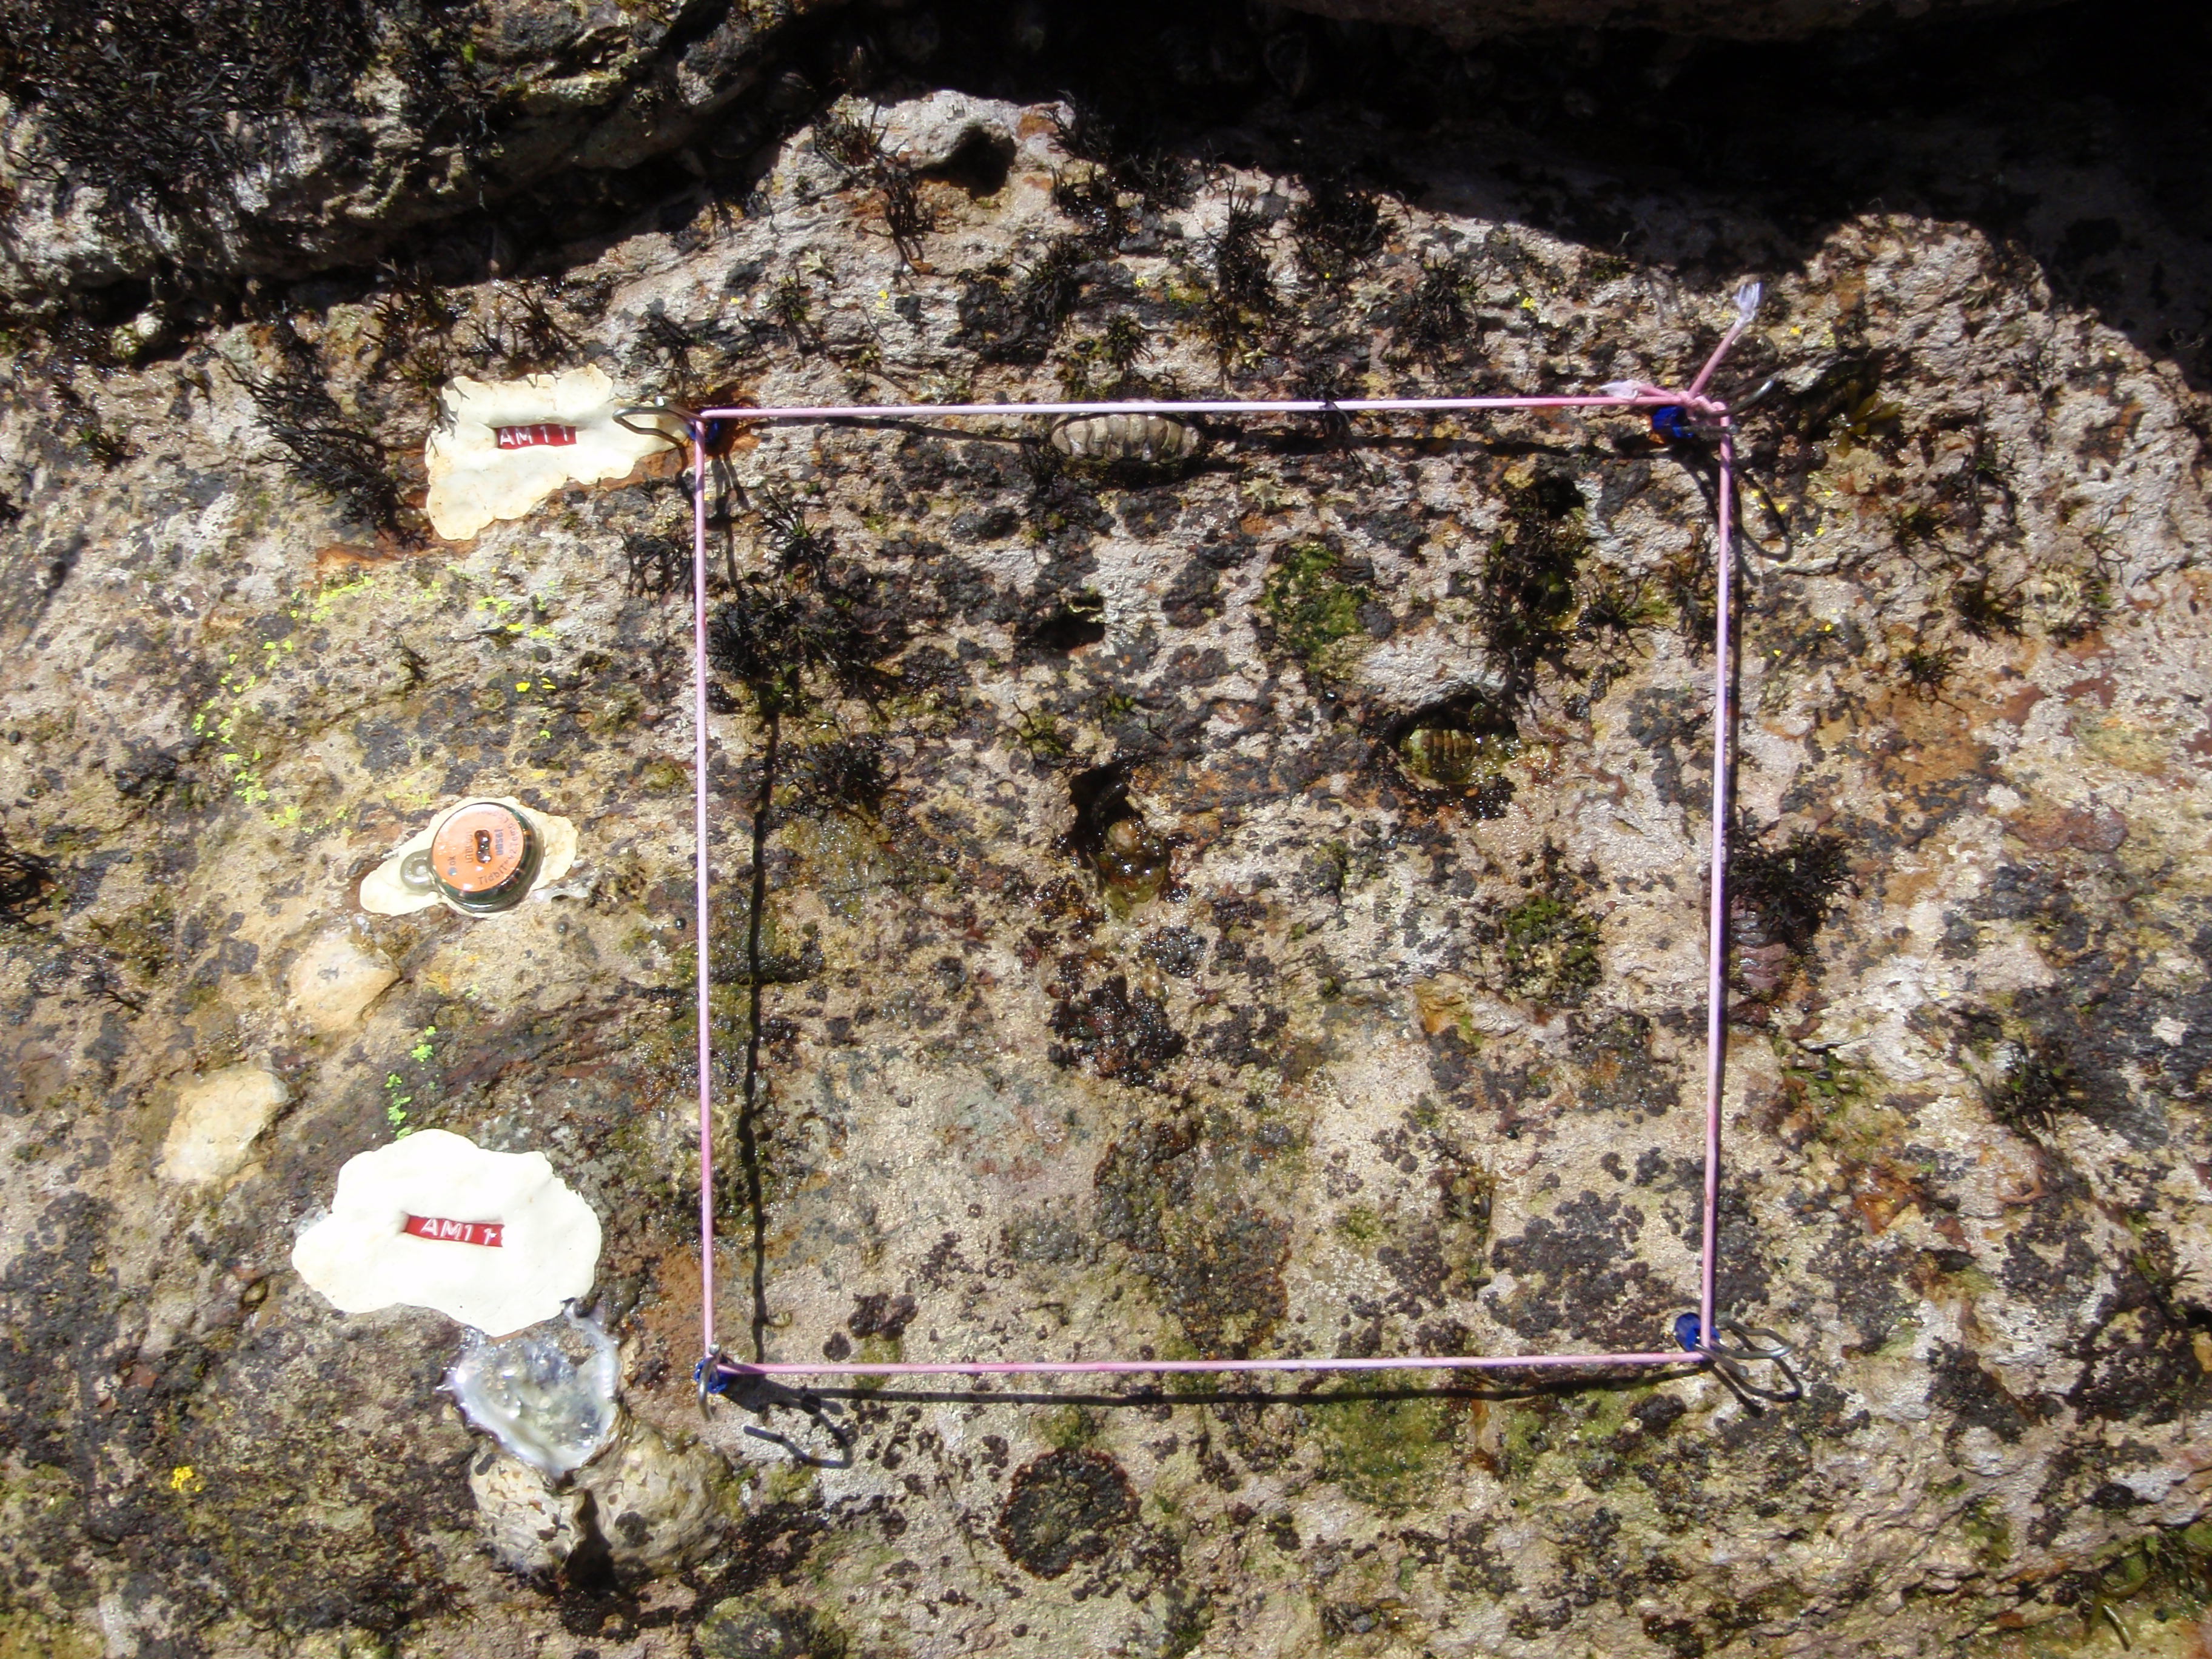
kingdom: Chromista
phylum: Ochrophyta
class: Phaeophyceae
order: Ishigeales
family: Ishigeaceae
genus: Ishige
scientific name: Ishige okamurae
